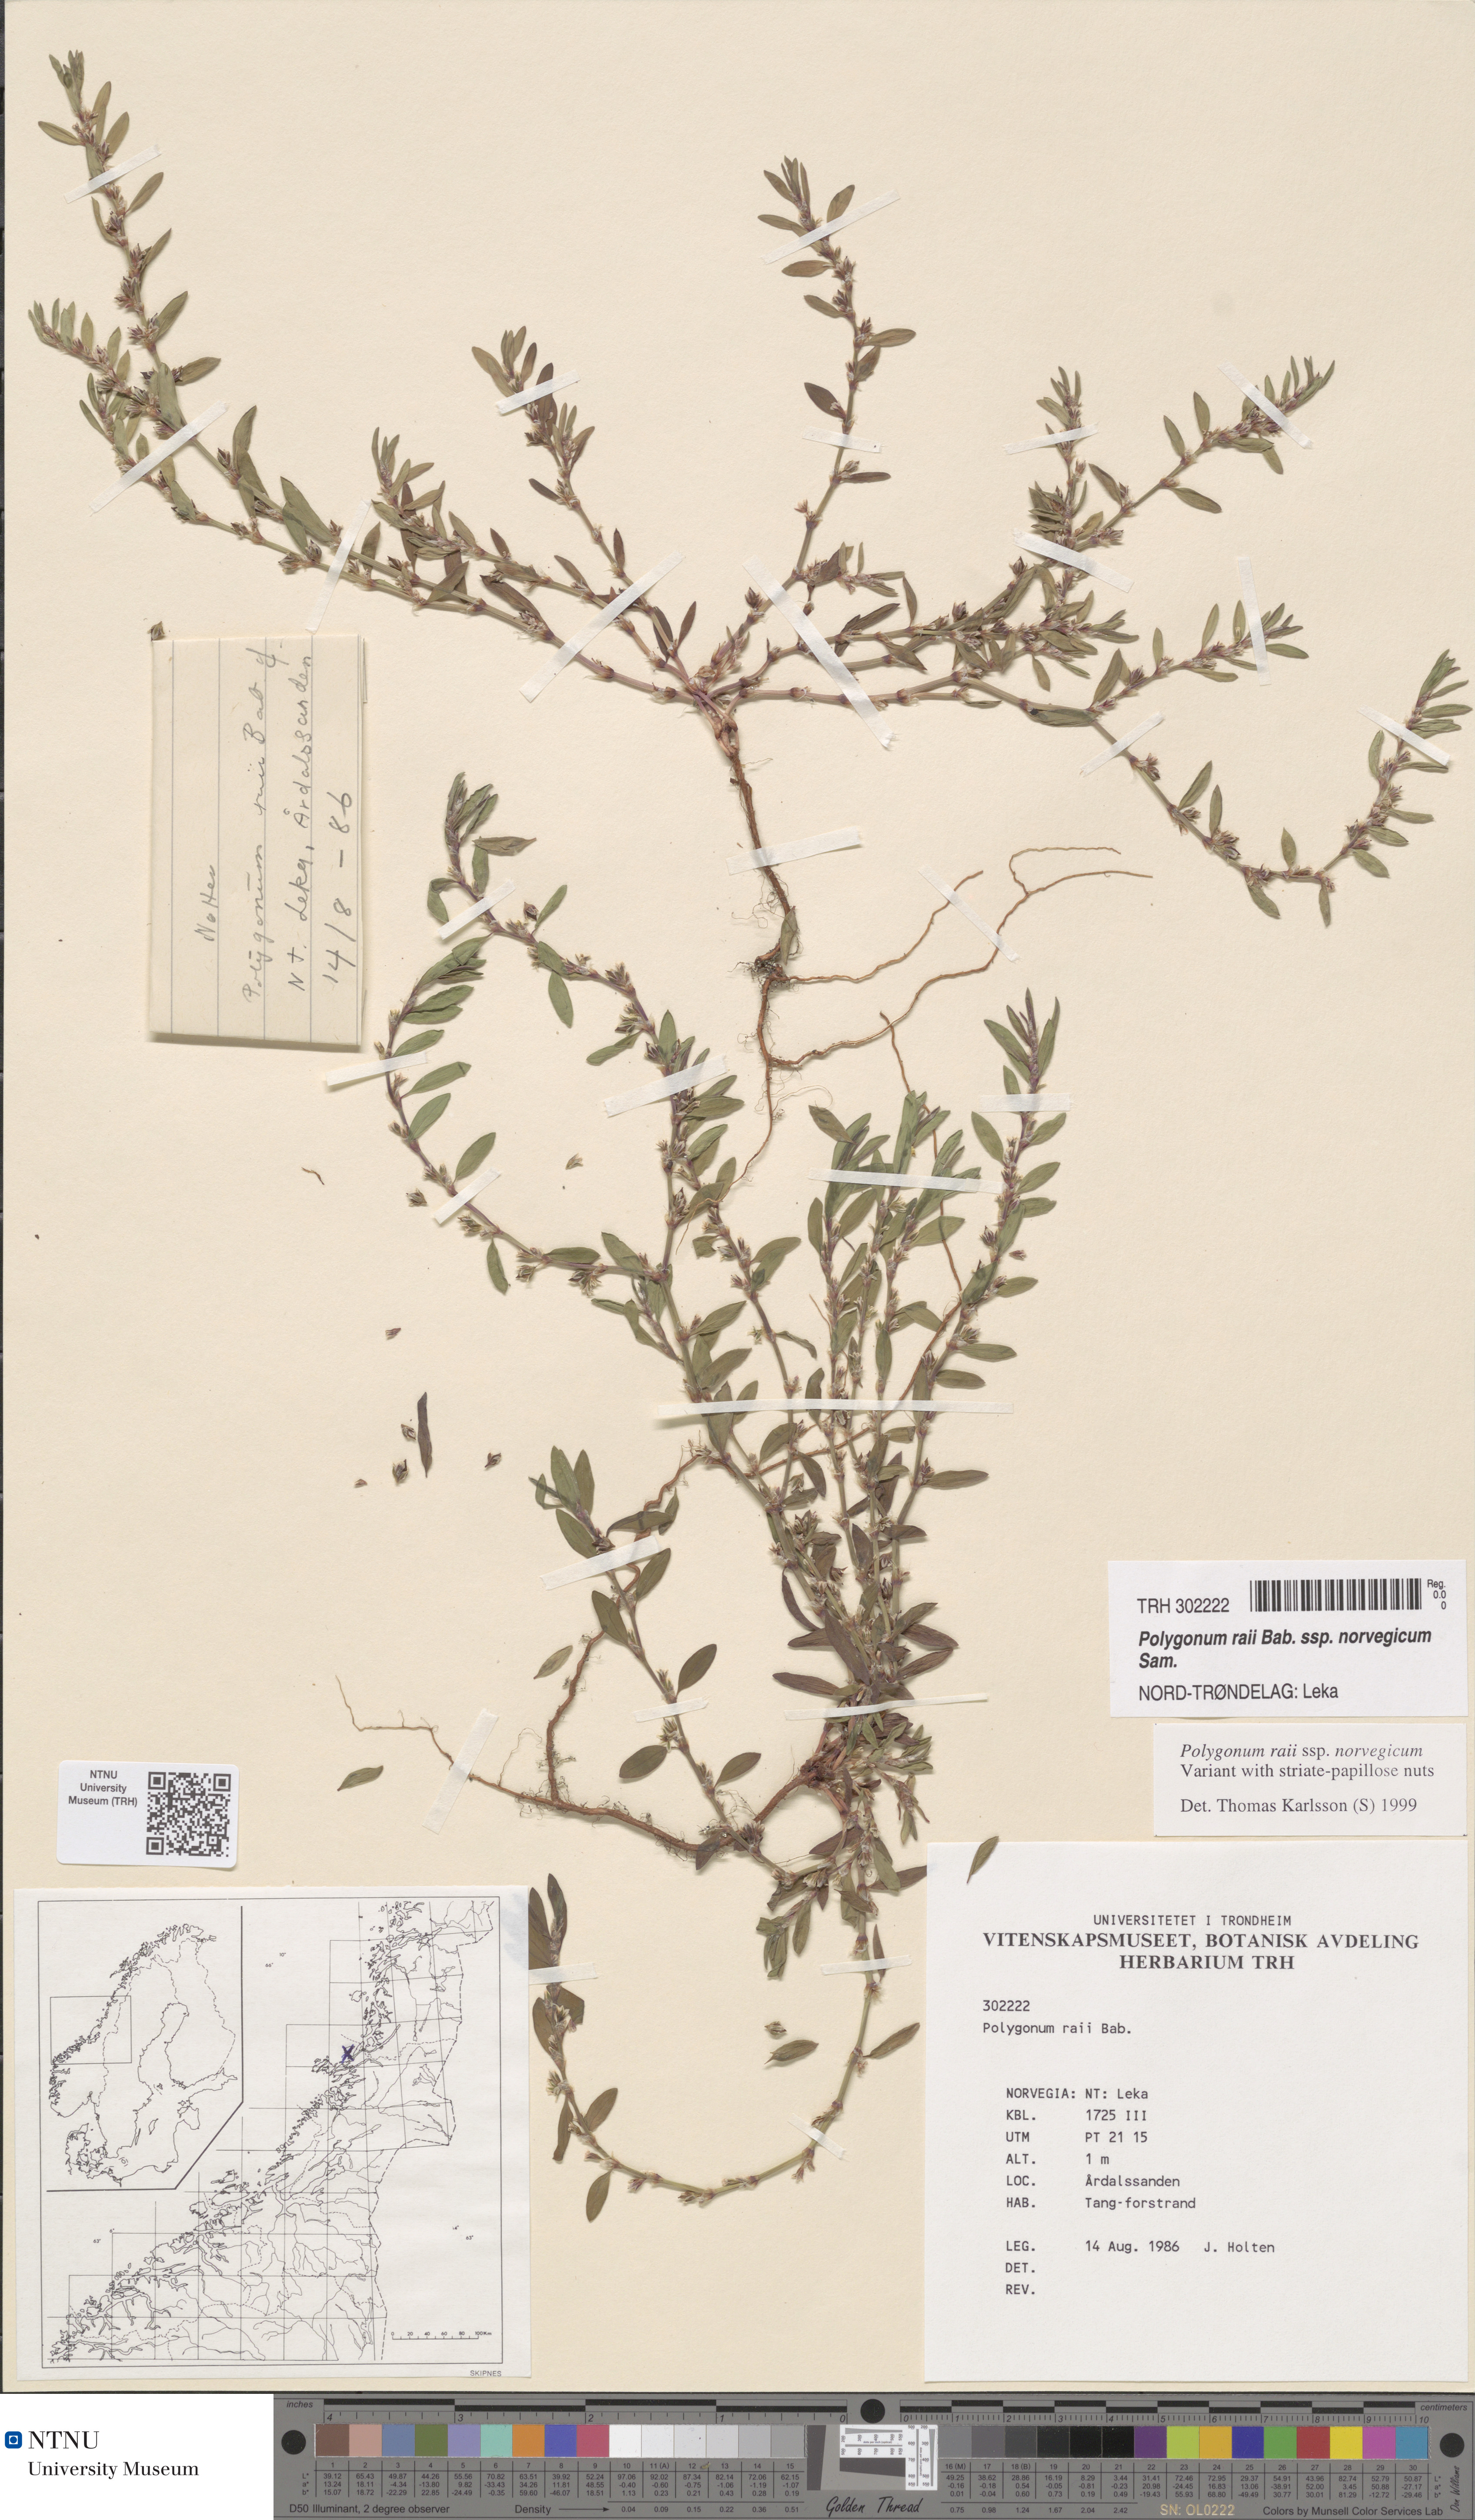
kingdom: Plantae
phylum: Tracheophyta
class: Magnoliopsida
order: Caryophyllales
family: Polygonaceae
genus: Polygonum
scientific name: Polygonum norvegicum
